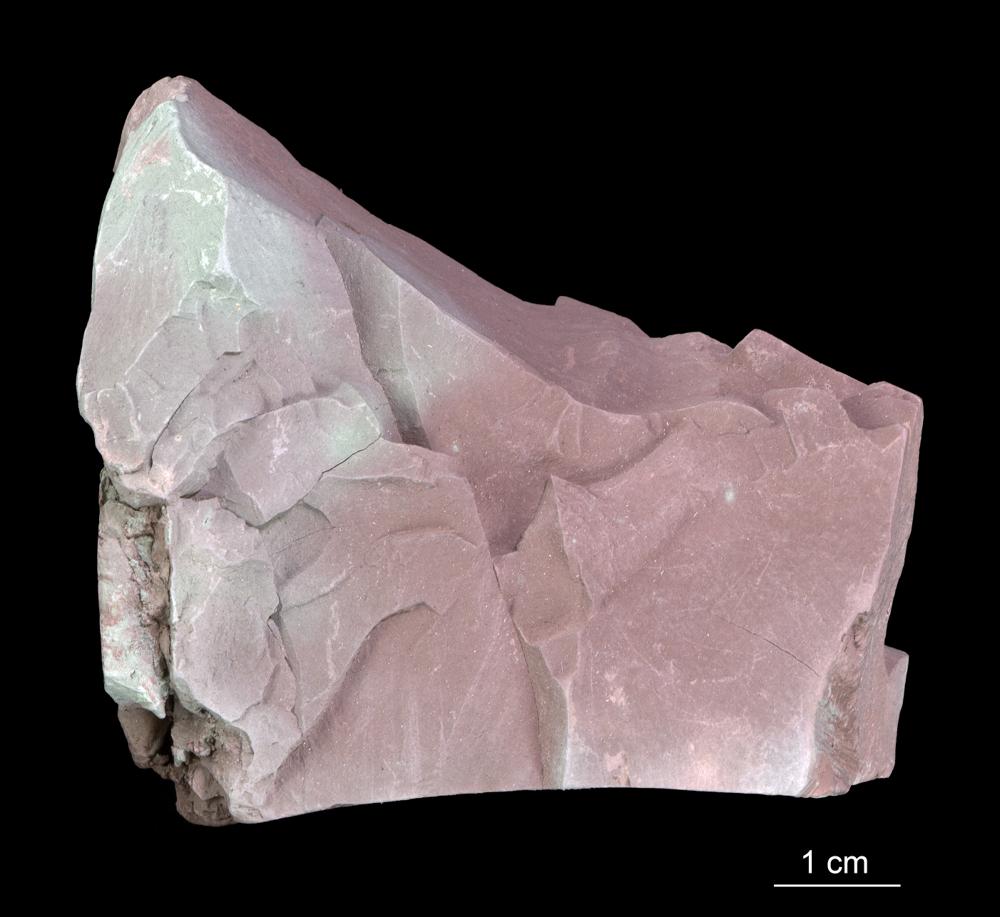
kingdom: Chromista
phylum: Foraminifera
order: Astrorhizida
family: Hyperamminidae
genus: Platysolenites
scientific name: Platysolenites antiquissimus
